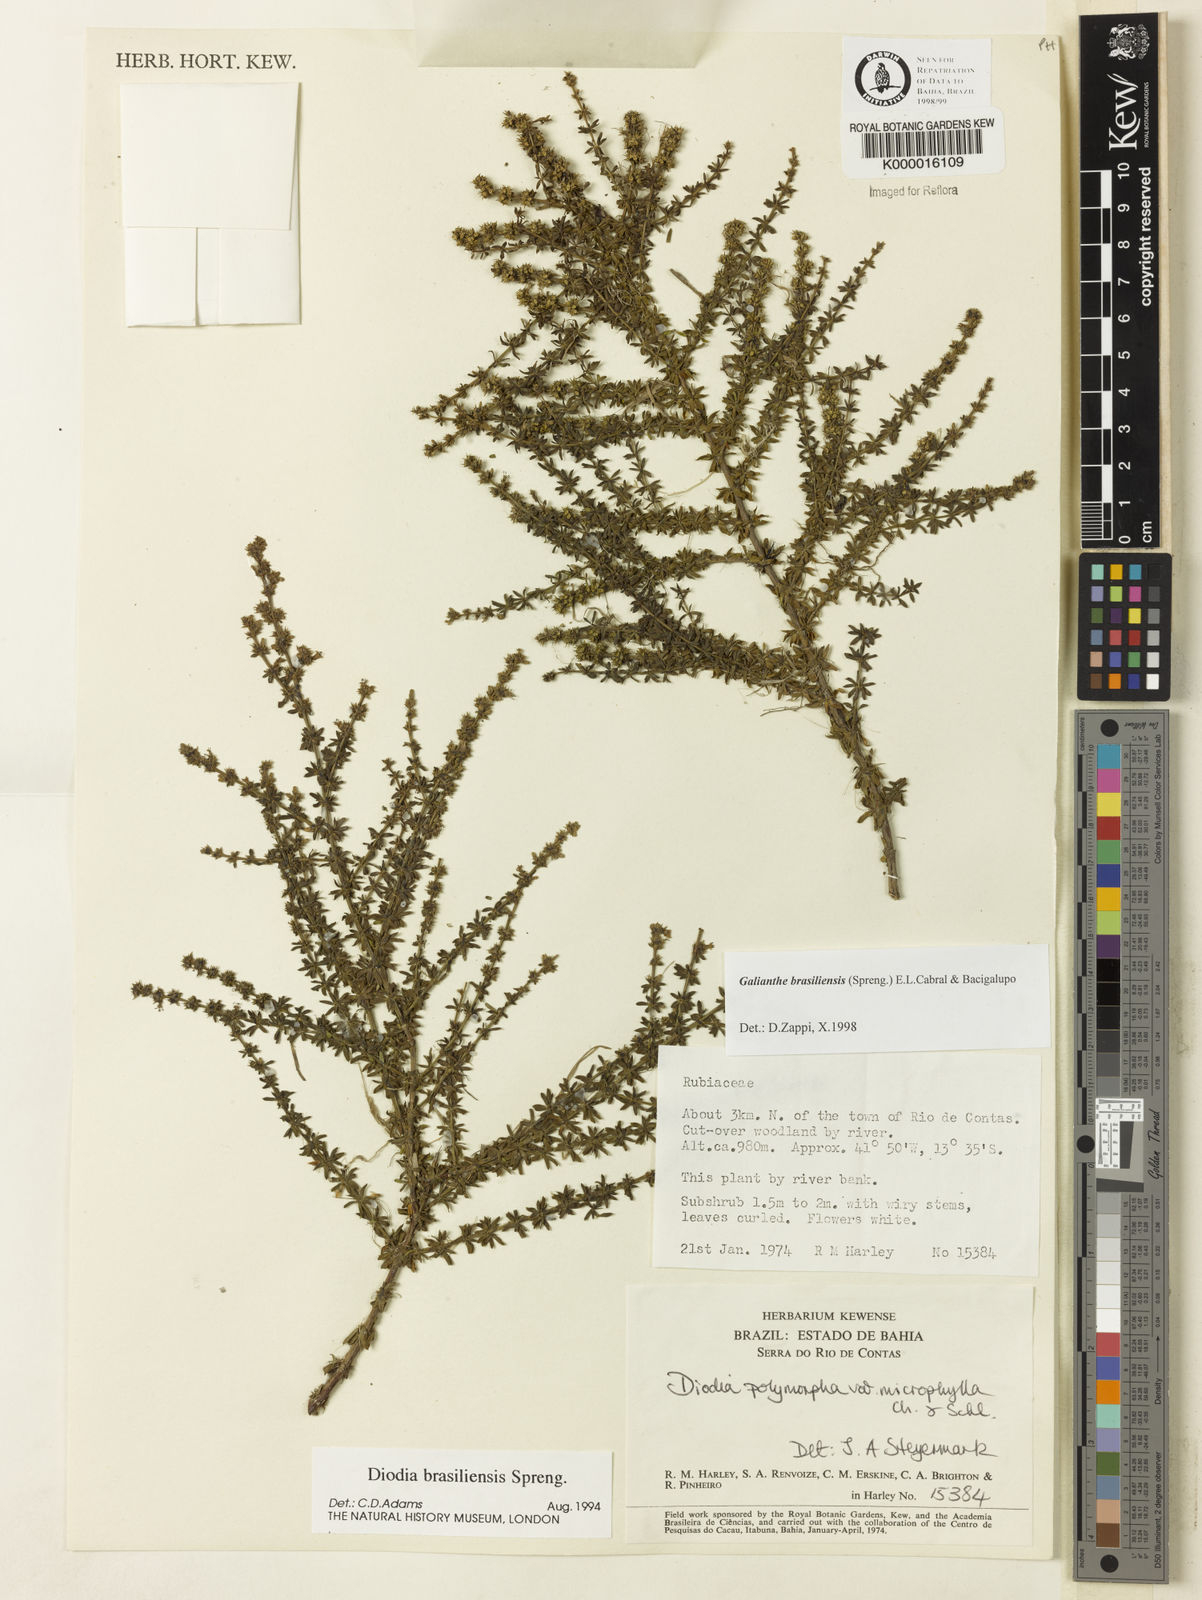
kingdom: Plantae
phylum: Tracheophyta
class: Magnoliopsida
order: Gentianales
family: Rubiaceae
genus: Galianthe
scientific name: Galianthe brasiliensis
